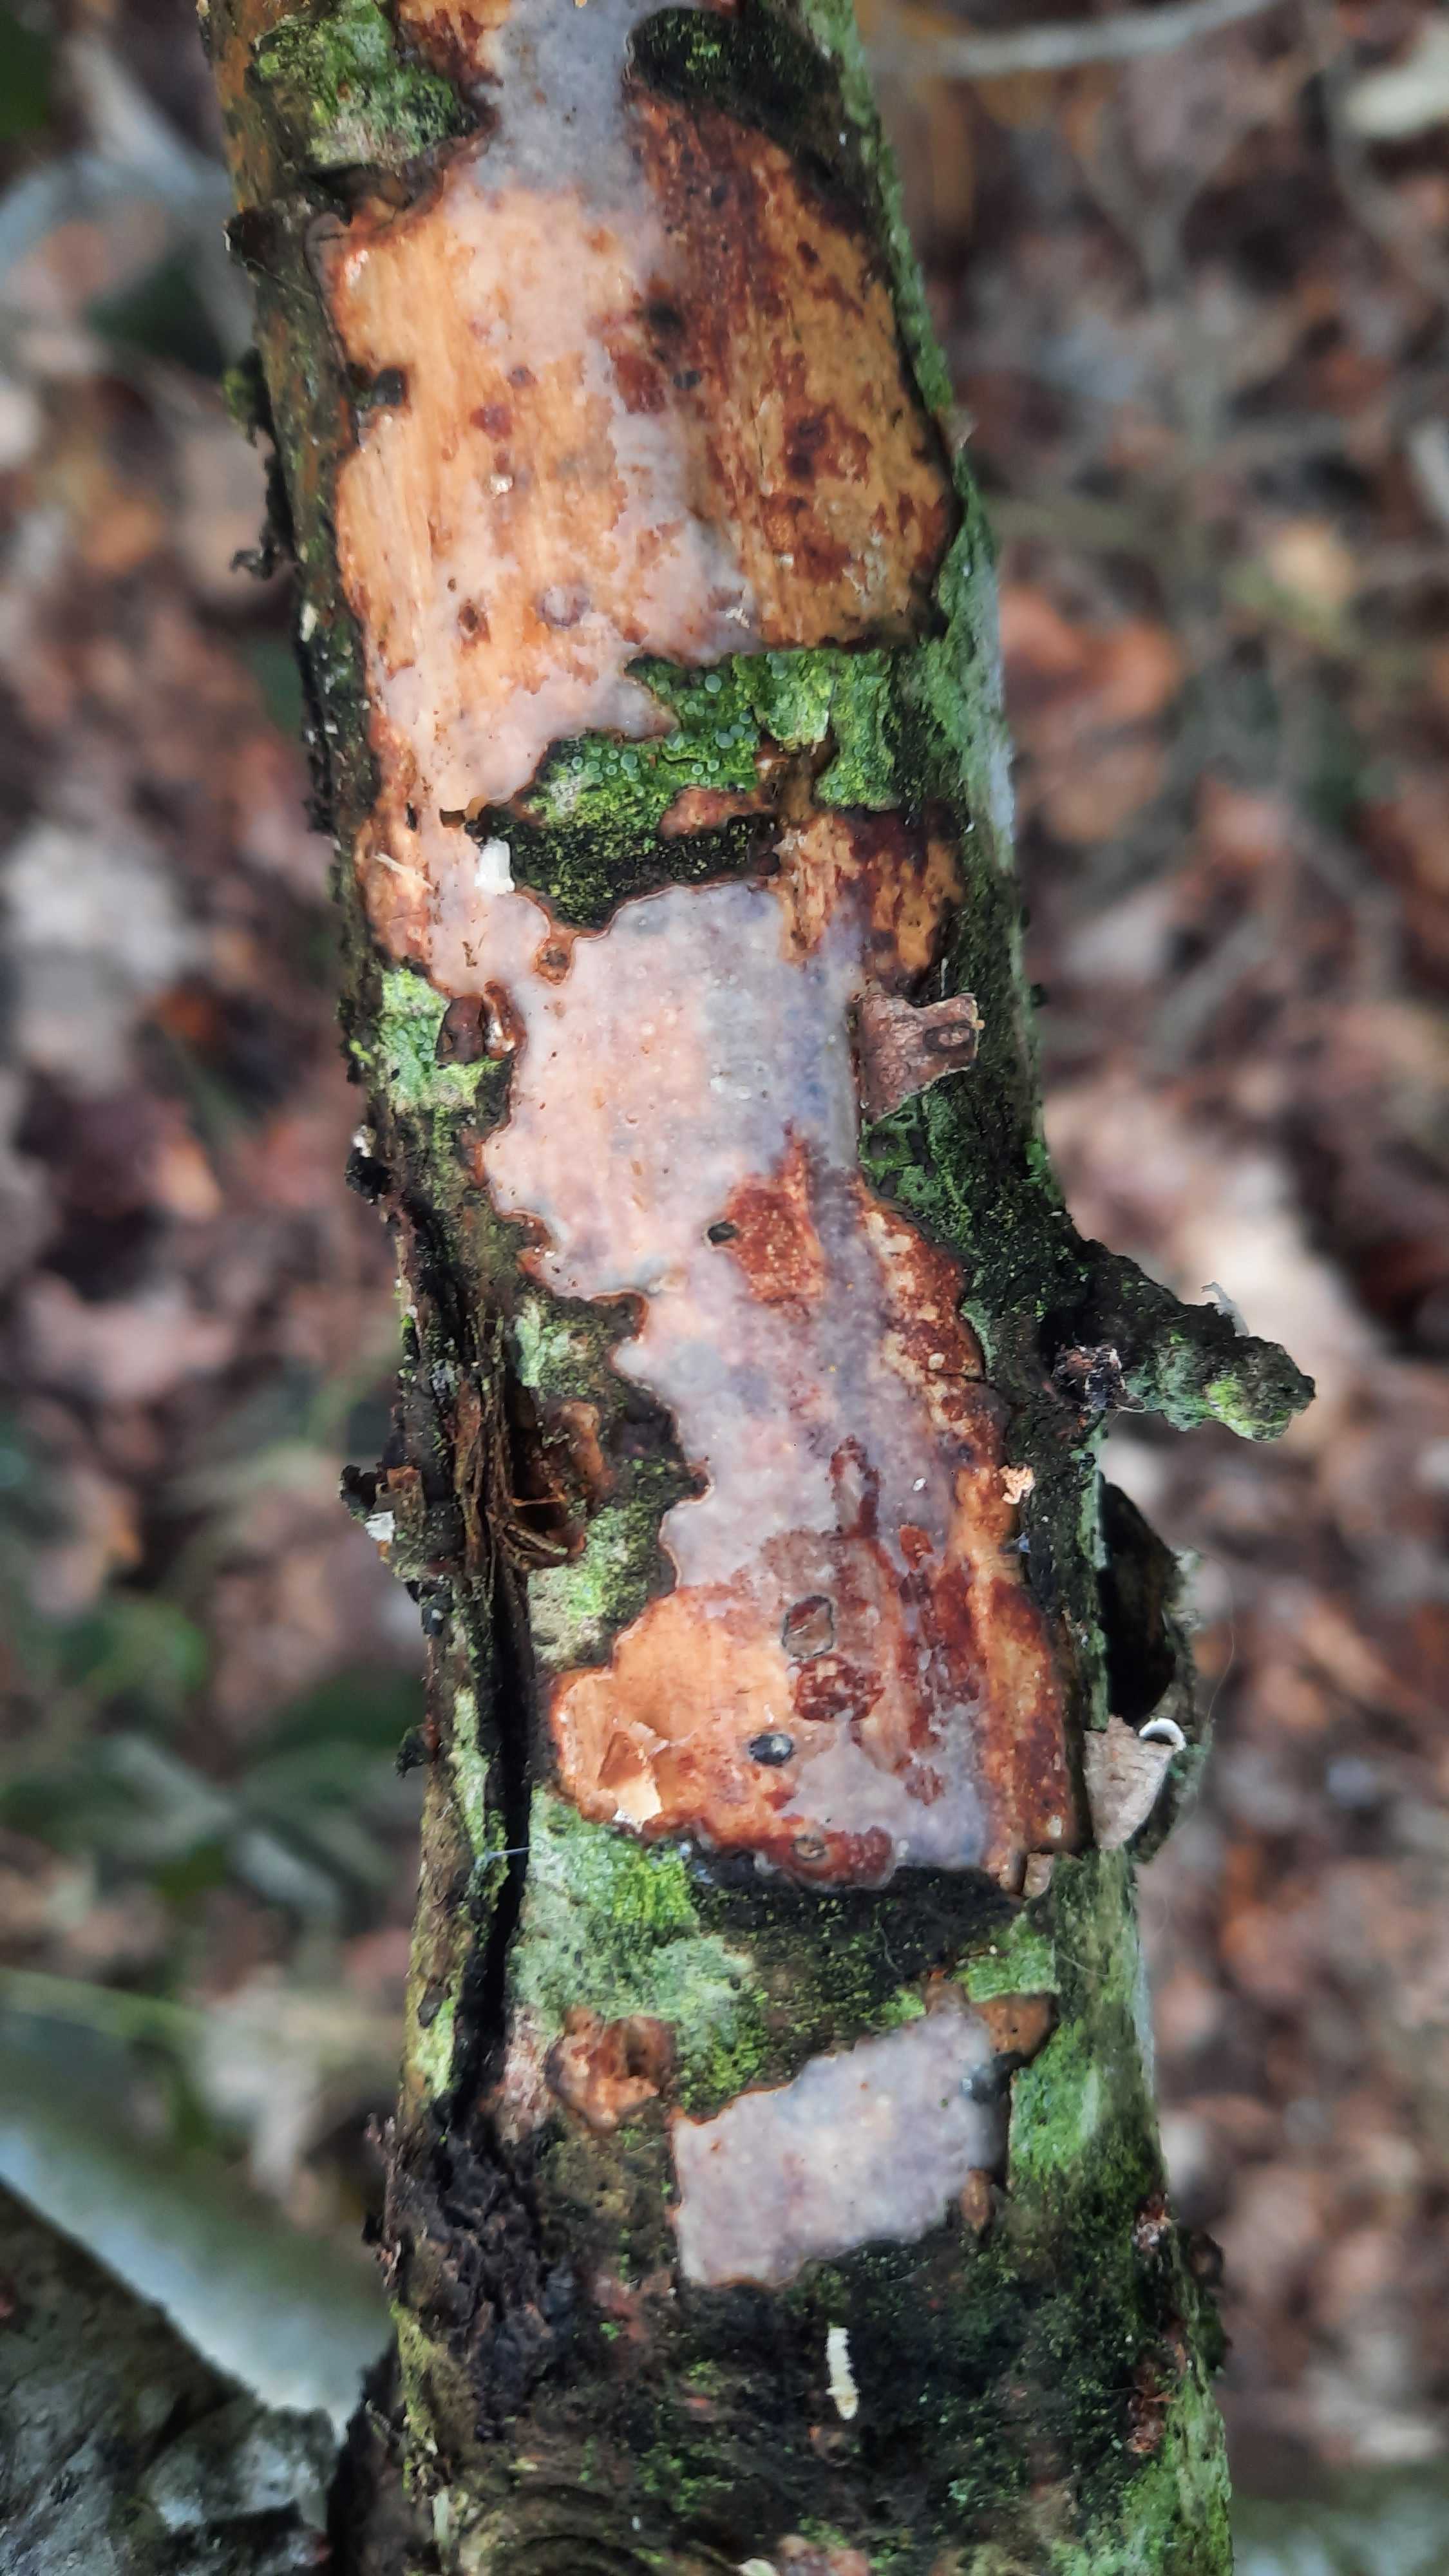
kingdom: Fungi
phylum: Basidiomycota
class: Agaricomycetes
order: Corticiales
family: Vuilleminiaceae
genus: Vuilleminia
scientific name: Vuilleminia comedens
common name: almindelig barksprænger
